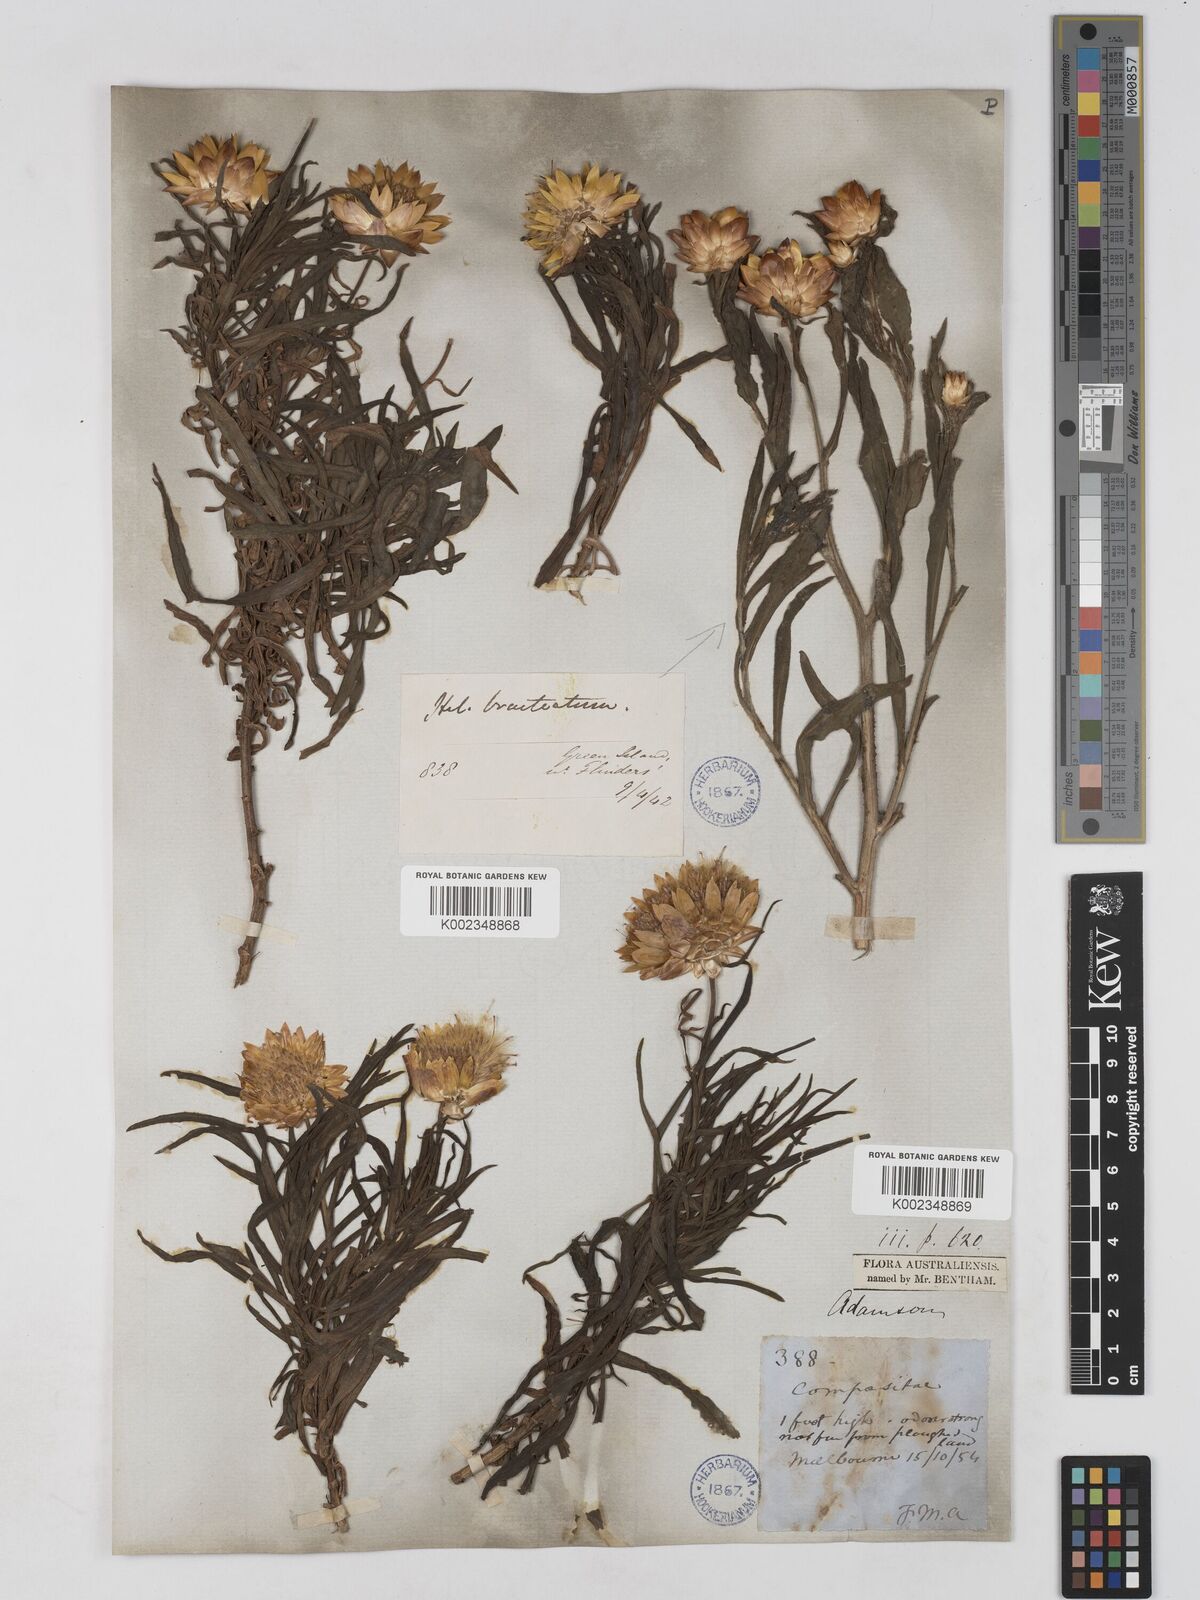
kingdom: Plantae
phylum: Tracheophyta
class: Magnoliopsida
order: Asterales
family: Asteraceae
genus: Xerochrysum
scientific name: Xerochrysum bracteatum
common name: Bracted strawflower
